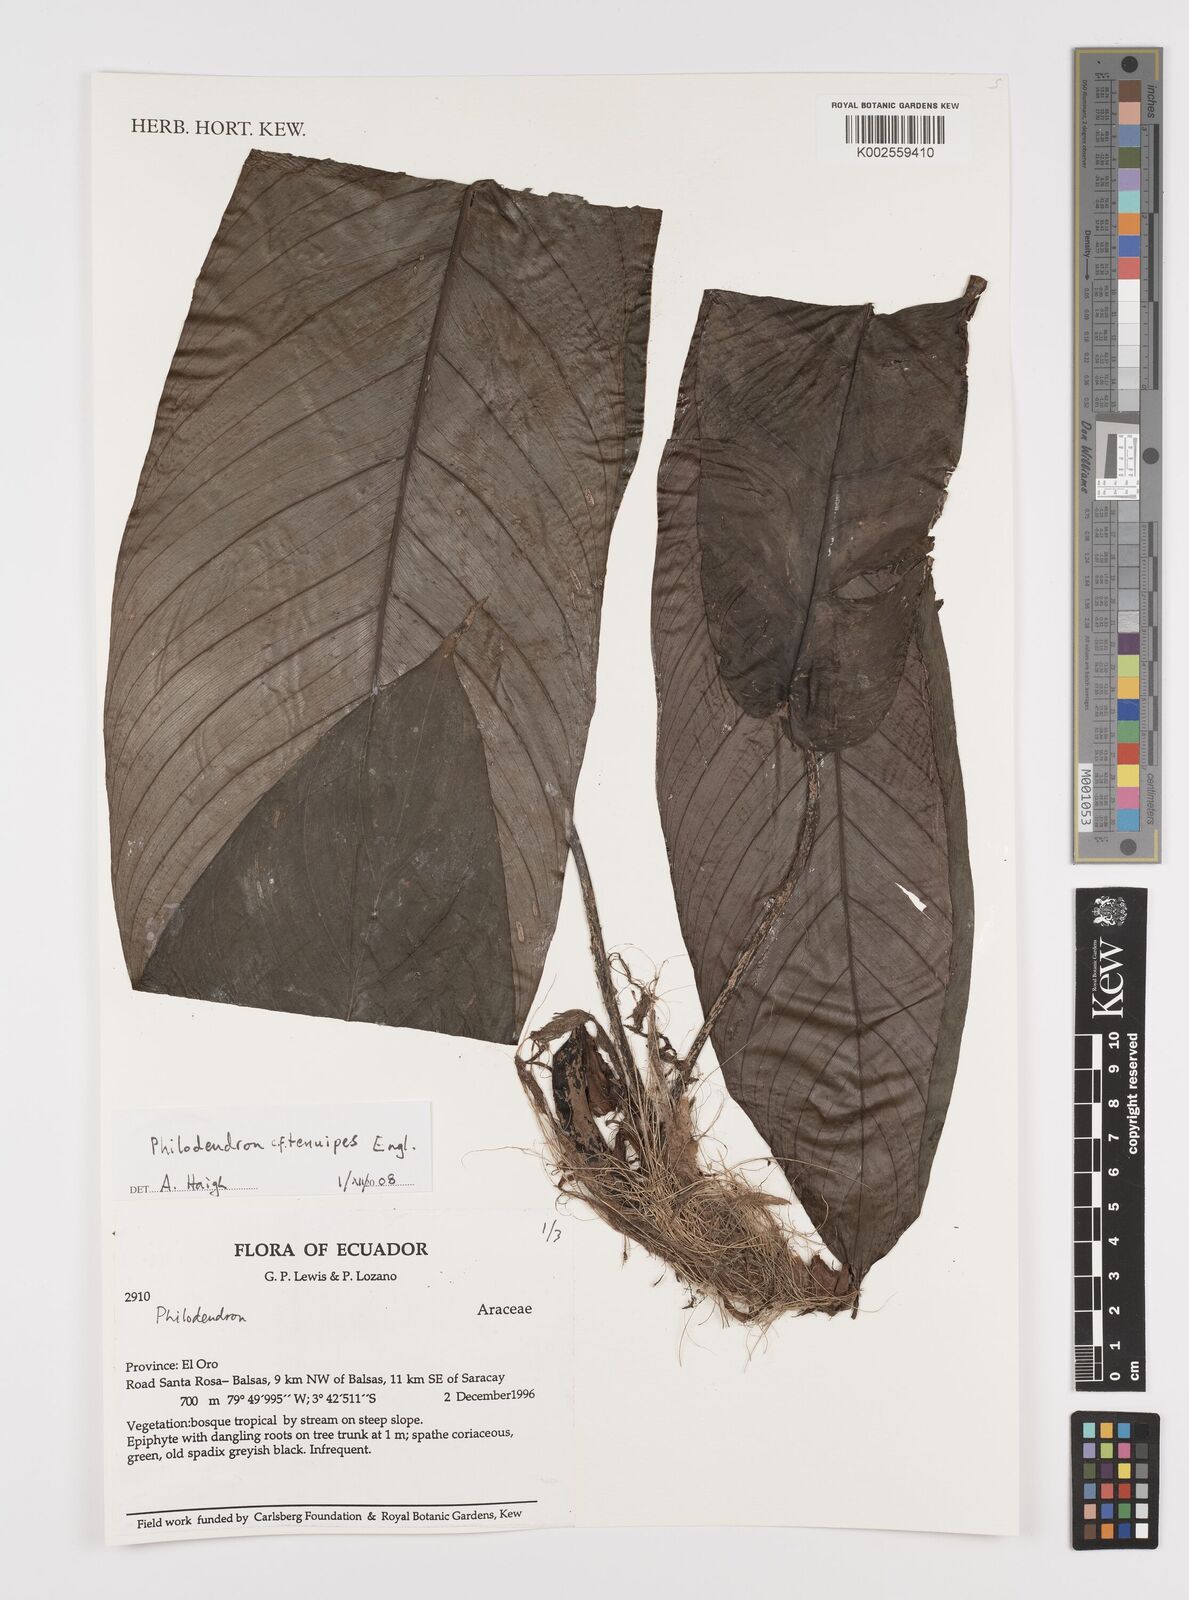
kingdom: Plantae
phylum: Tracheophyta
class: Liliopsida
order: Alismatales
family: Araceae
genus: Philodendron
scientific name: Philodendron tenuipes
